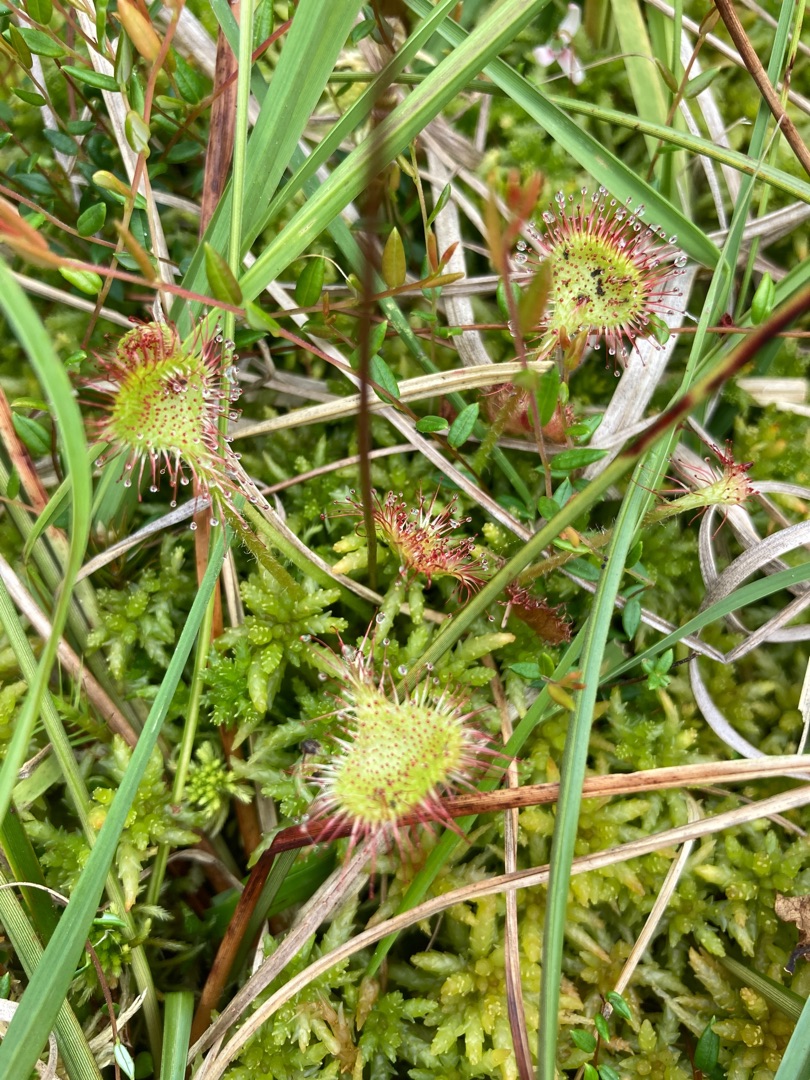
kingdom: Plantae
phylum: Tracheophyta
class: Magnoliopsida
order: Caryophyllales
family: Droseraceae
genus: Drosera
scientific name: Drosera rotundifolia
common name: Rundbladet soldug
